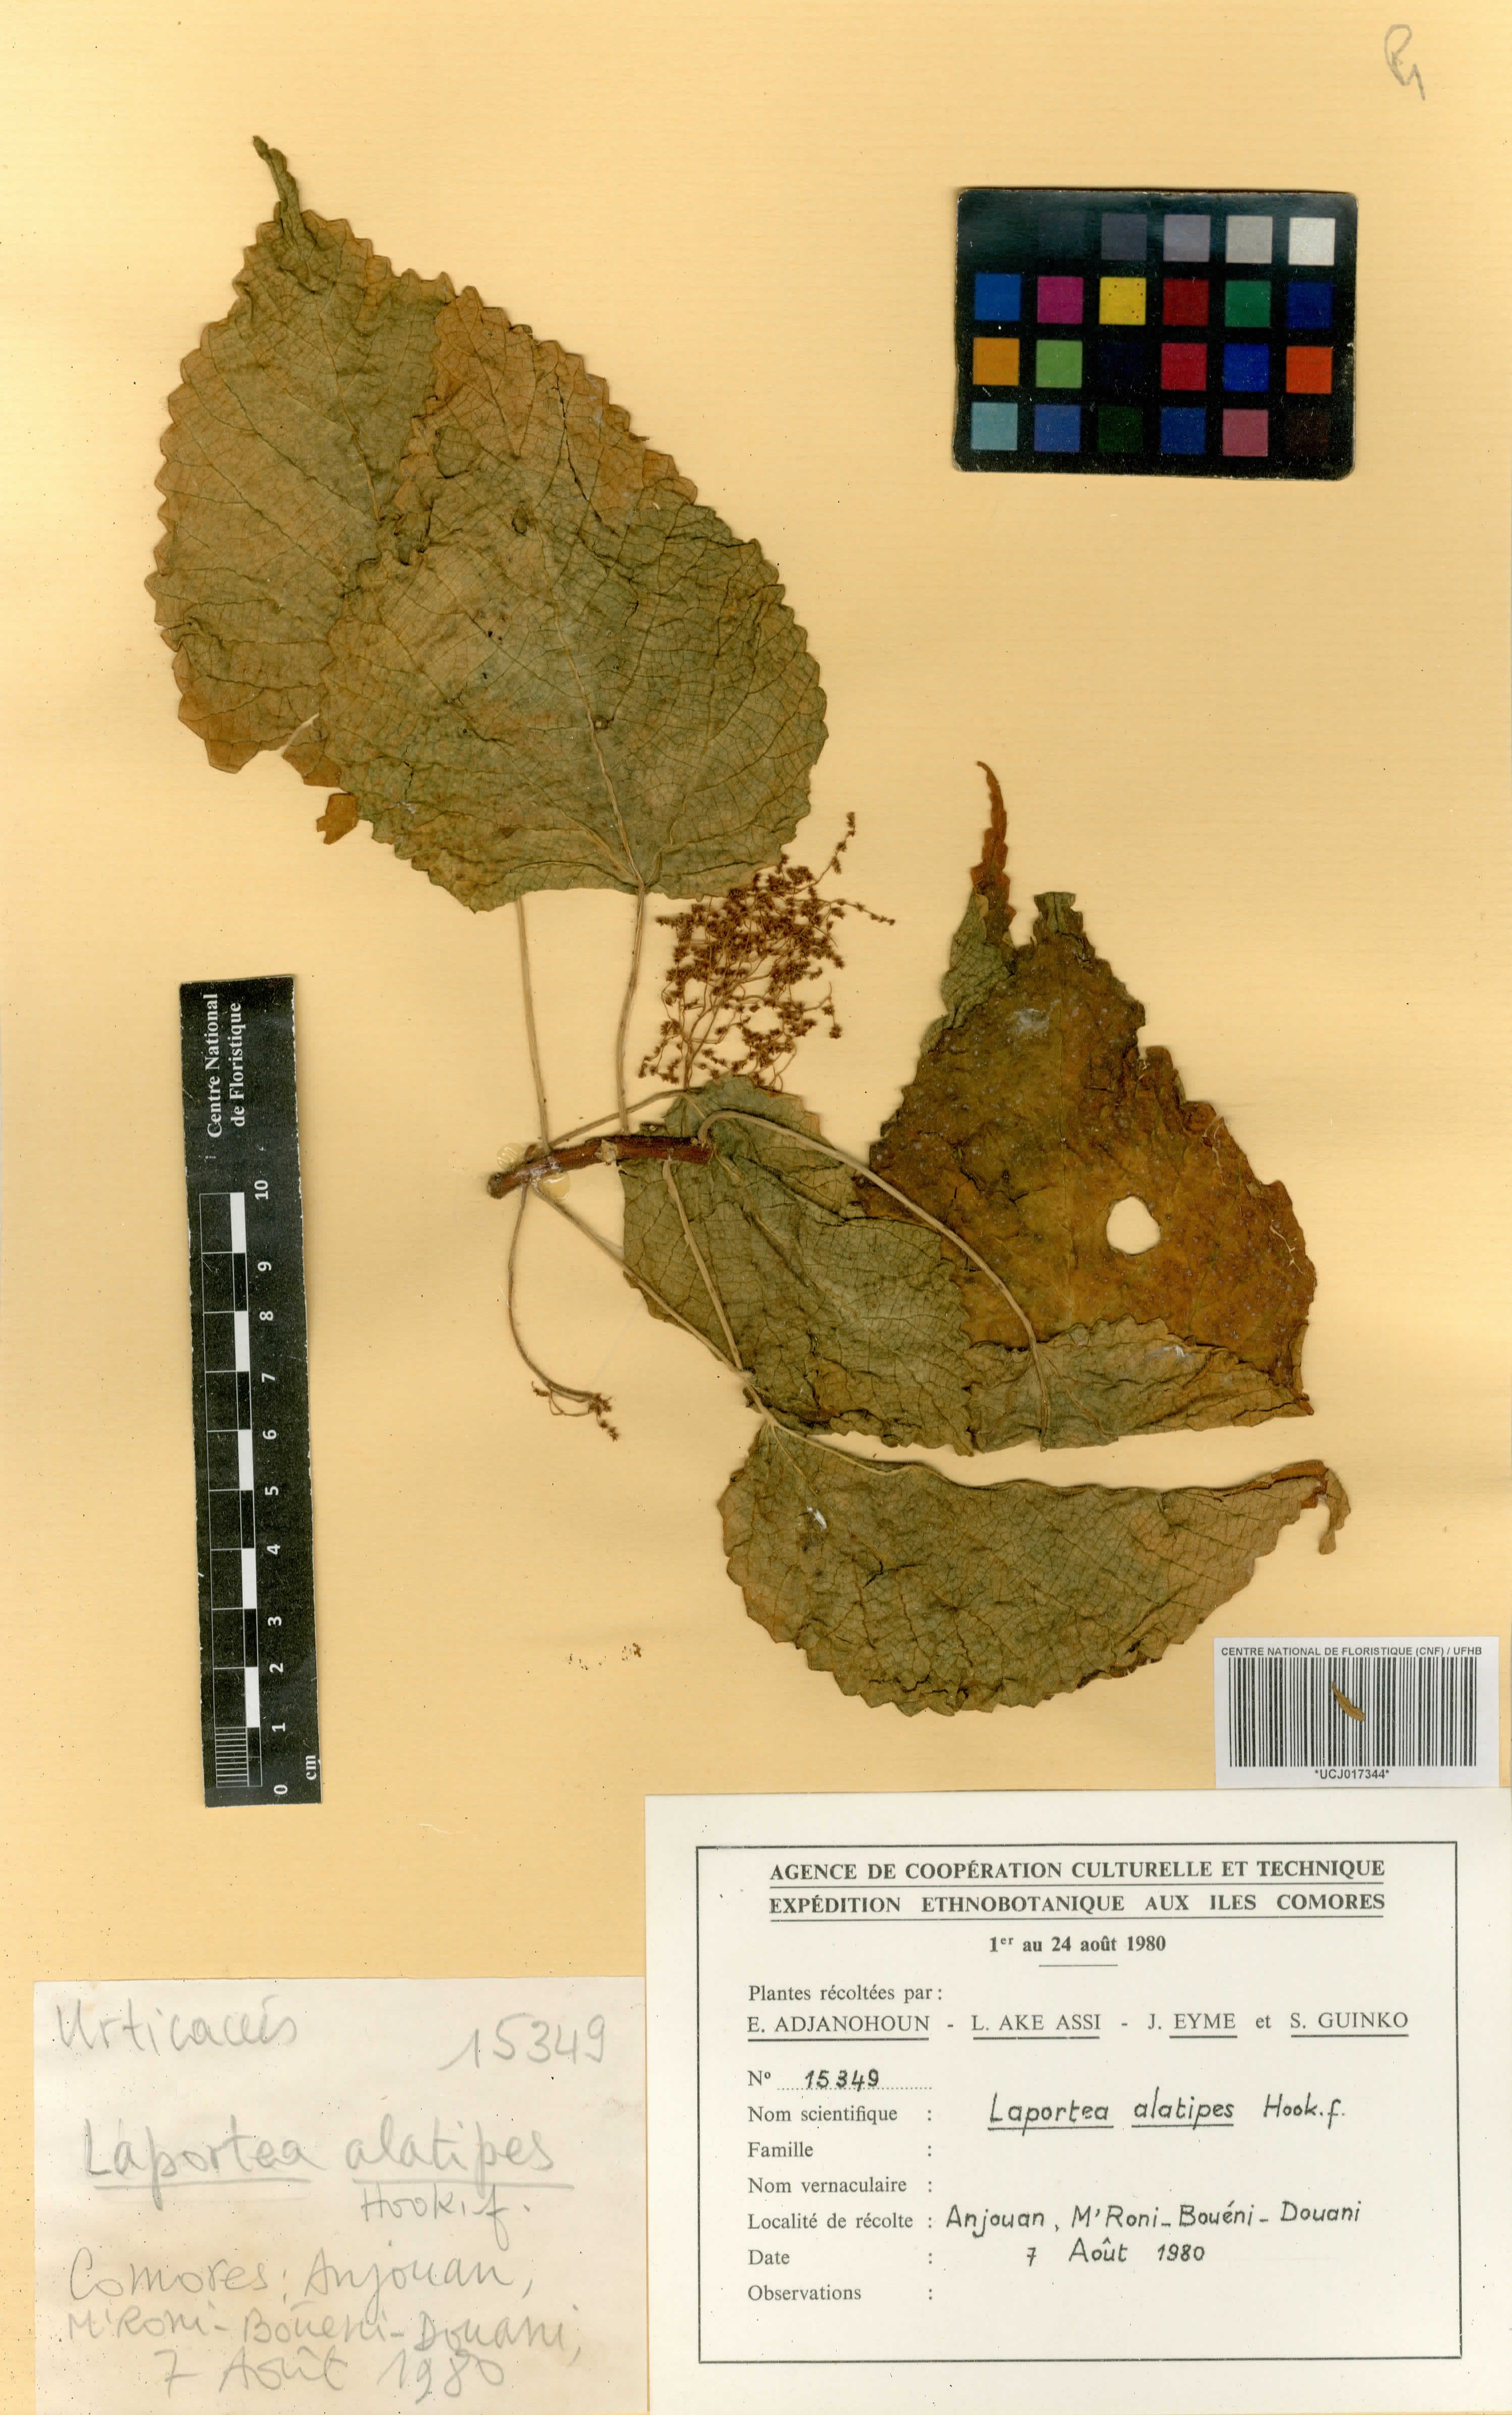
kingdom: Plantae
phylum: Tracheophyta
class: Magnoliopsida
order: Rosales
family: Urticaceae
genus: Laportea
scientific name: Laportea alatipes
